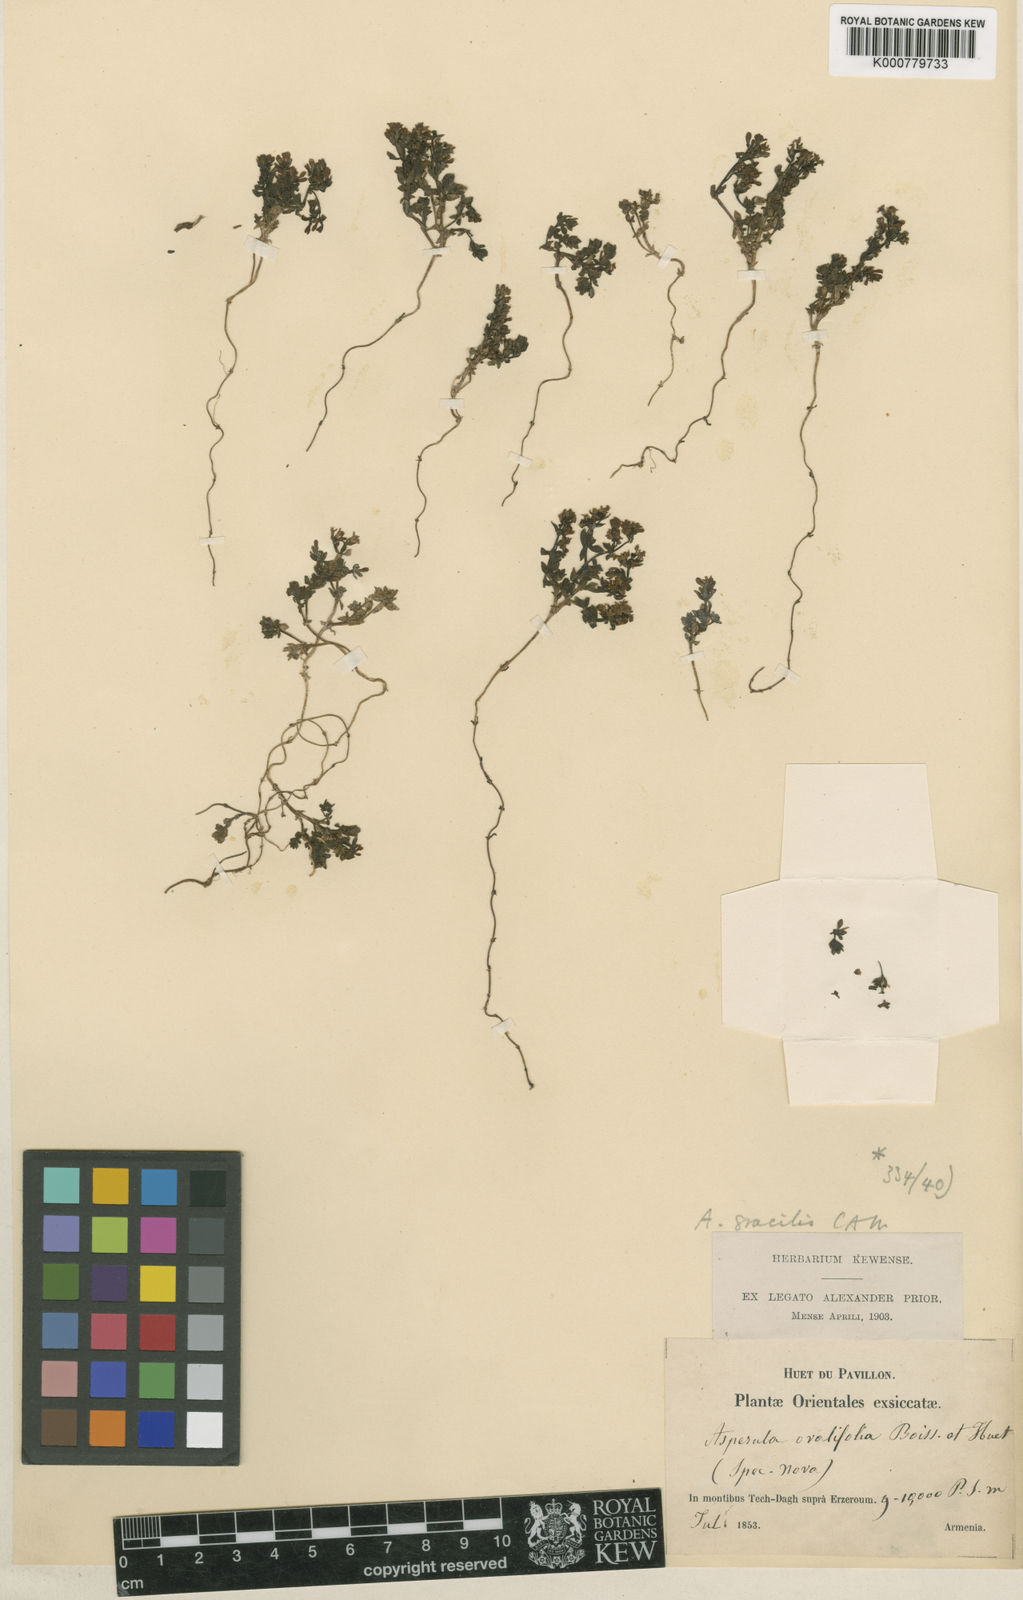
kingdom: Plantae
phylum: Tracheophyta
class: Magnoliopsida
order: Gentianales
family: Rubiaceae
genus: Asperula
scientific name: Asperula gracilis
